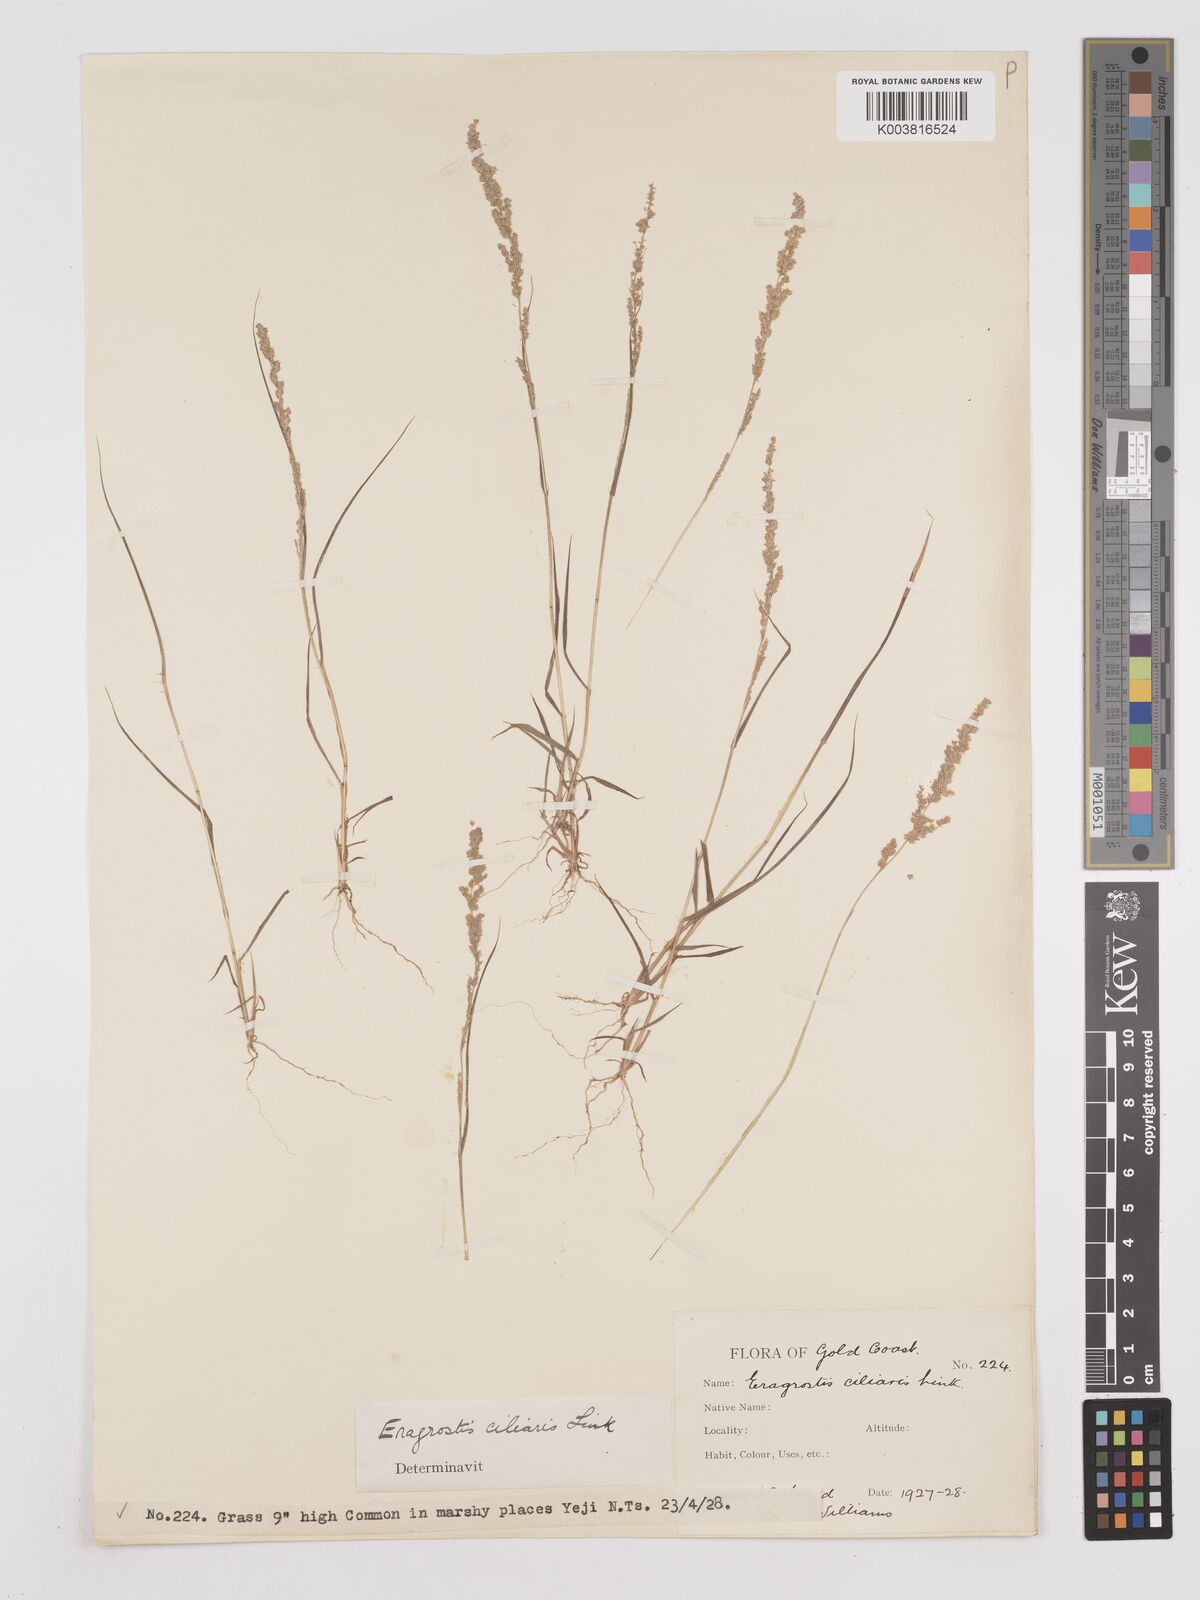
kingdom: Plantae
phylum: Tracheophyta
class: Liliopsida
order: Poales
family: Poaceae
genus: Eragrostis
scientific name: Eragrostis ciliaris
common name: Gophertail lovegrass
